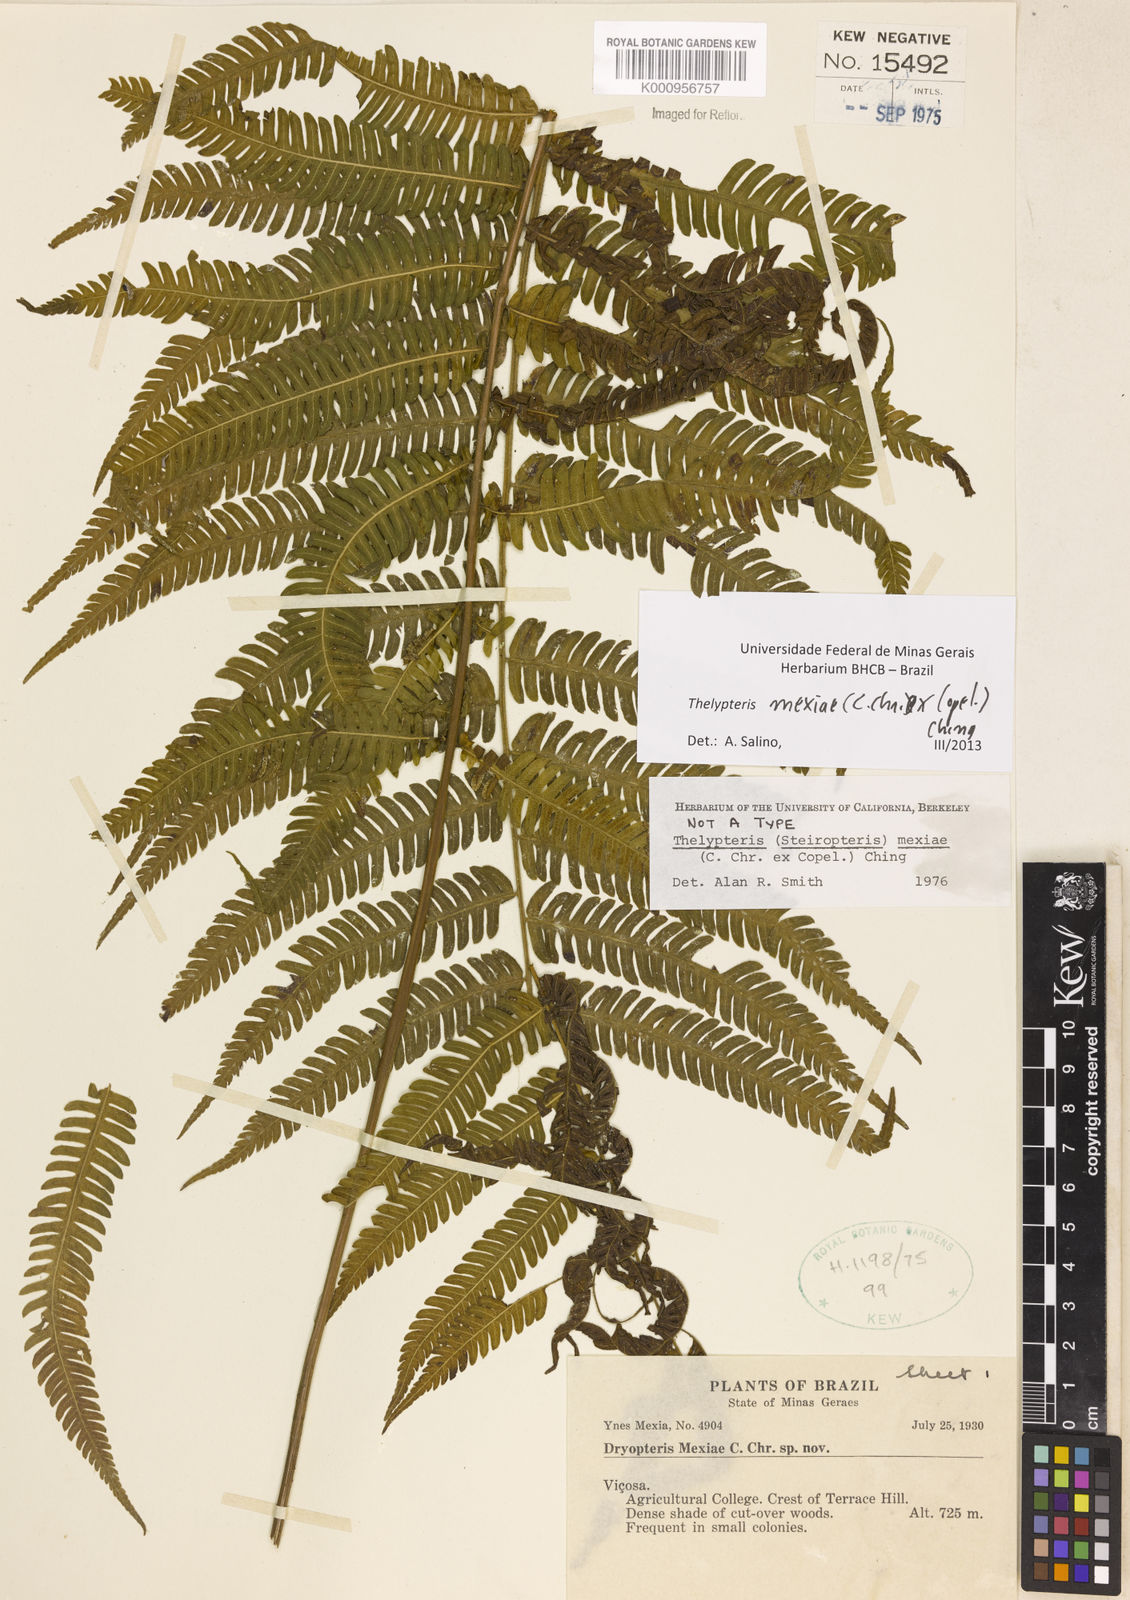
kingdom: Plantae
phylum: Tracheophyta
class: Polypodiopsida
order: Polypodiales
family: Thelypteridaceae
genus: Steiropteris
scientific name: Steiropteris mexiae
